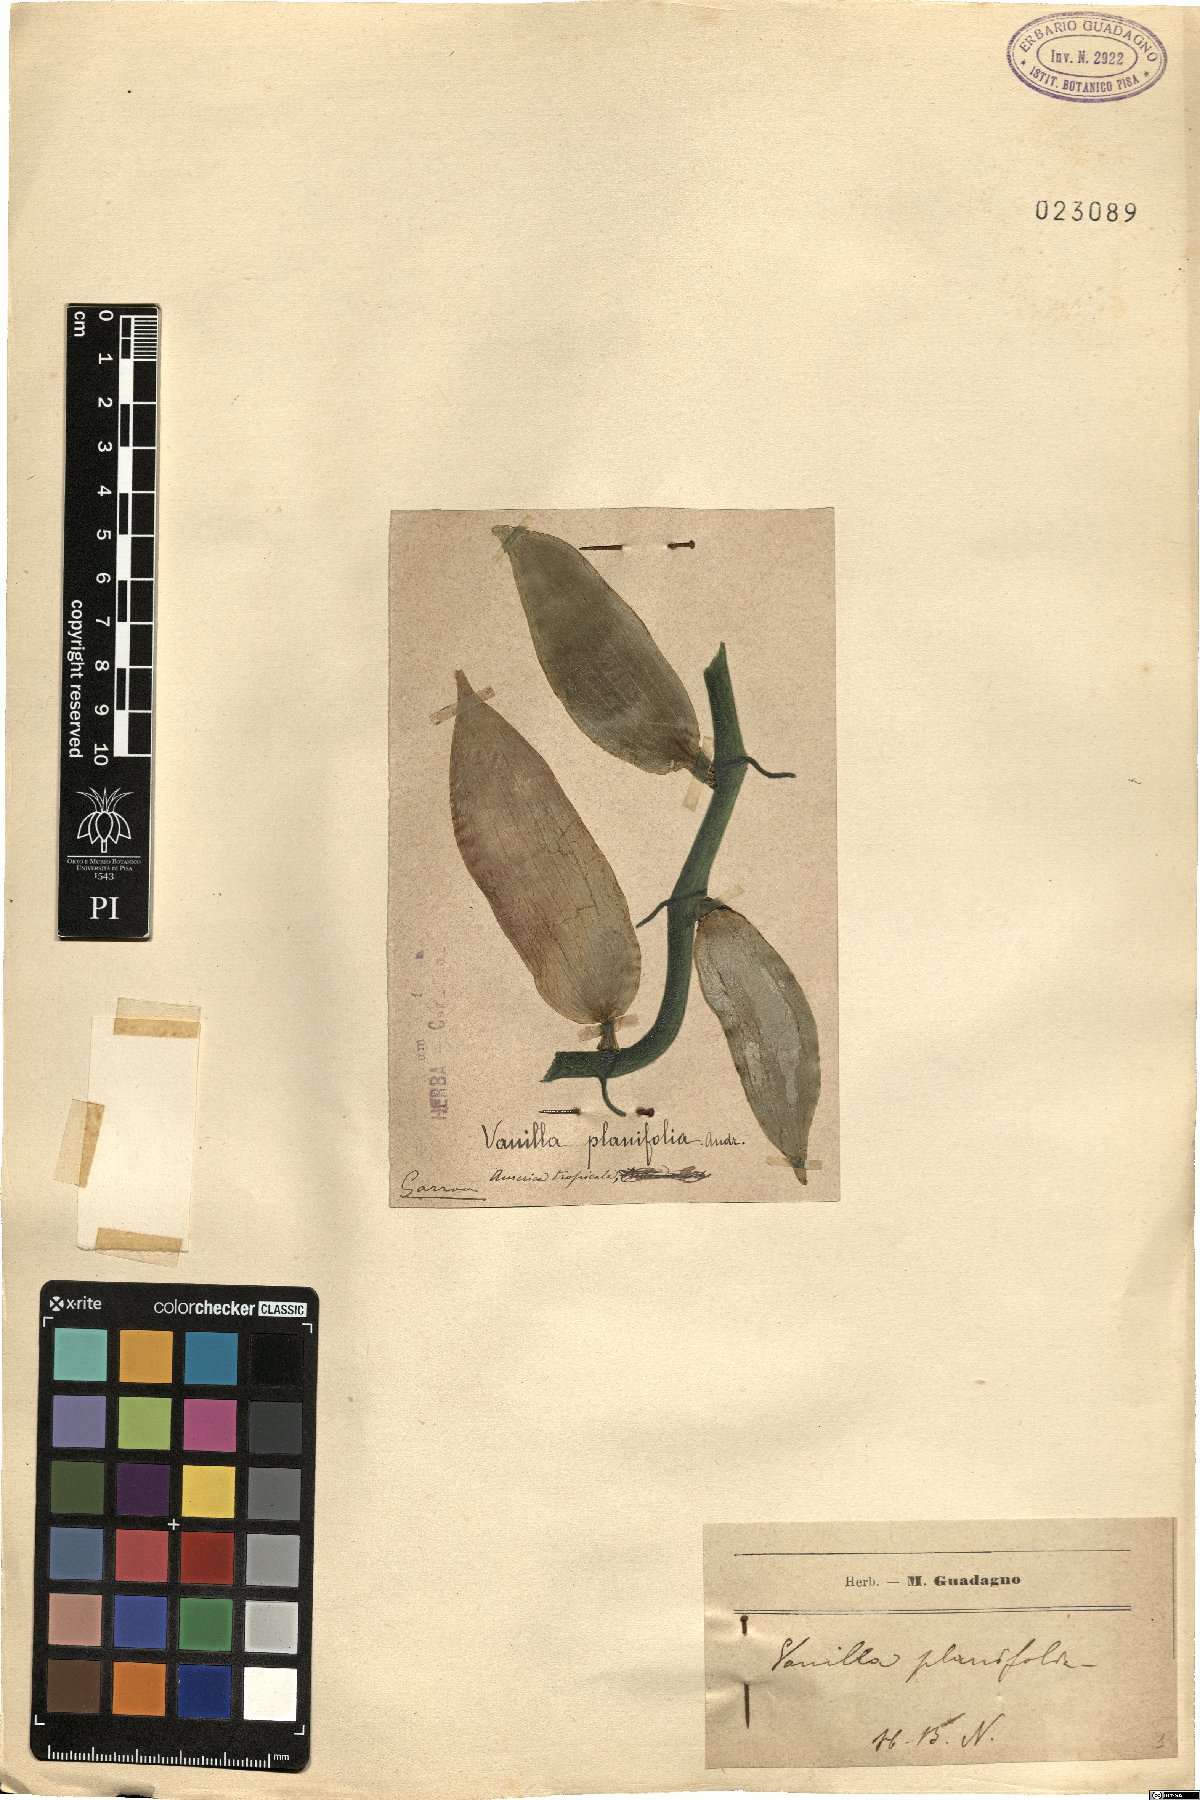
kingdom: Plantae
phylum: Tracheophyta
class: Liliopsida
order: Asparagales
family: Orchidaceae
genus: Vanilla
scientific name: Vanilla planifolia
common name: Vanilla
